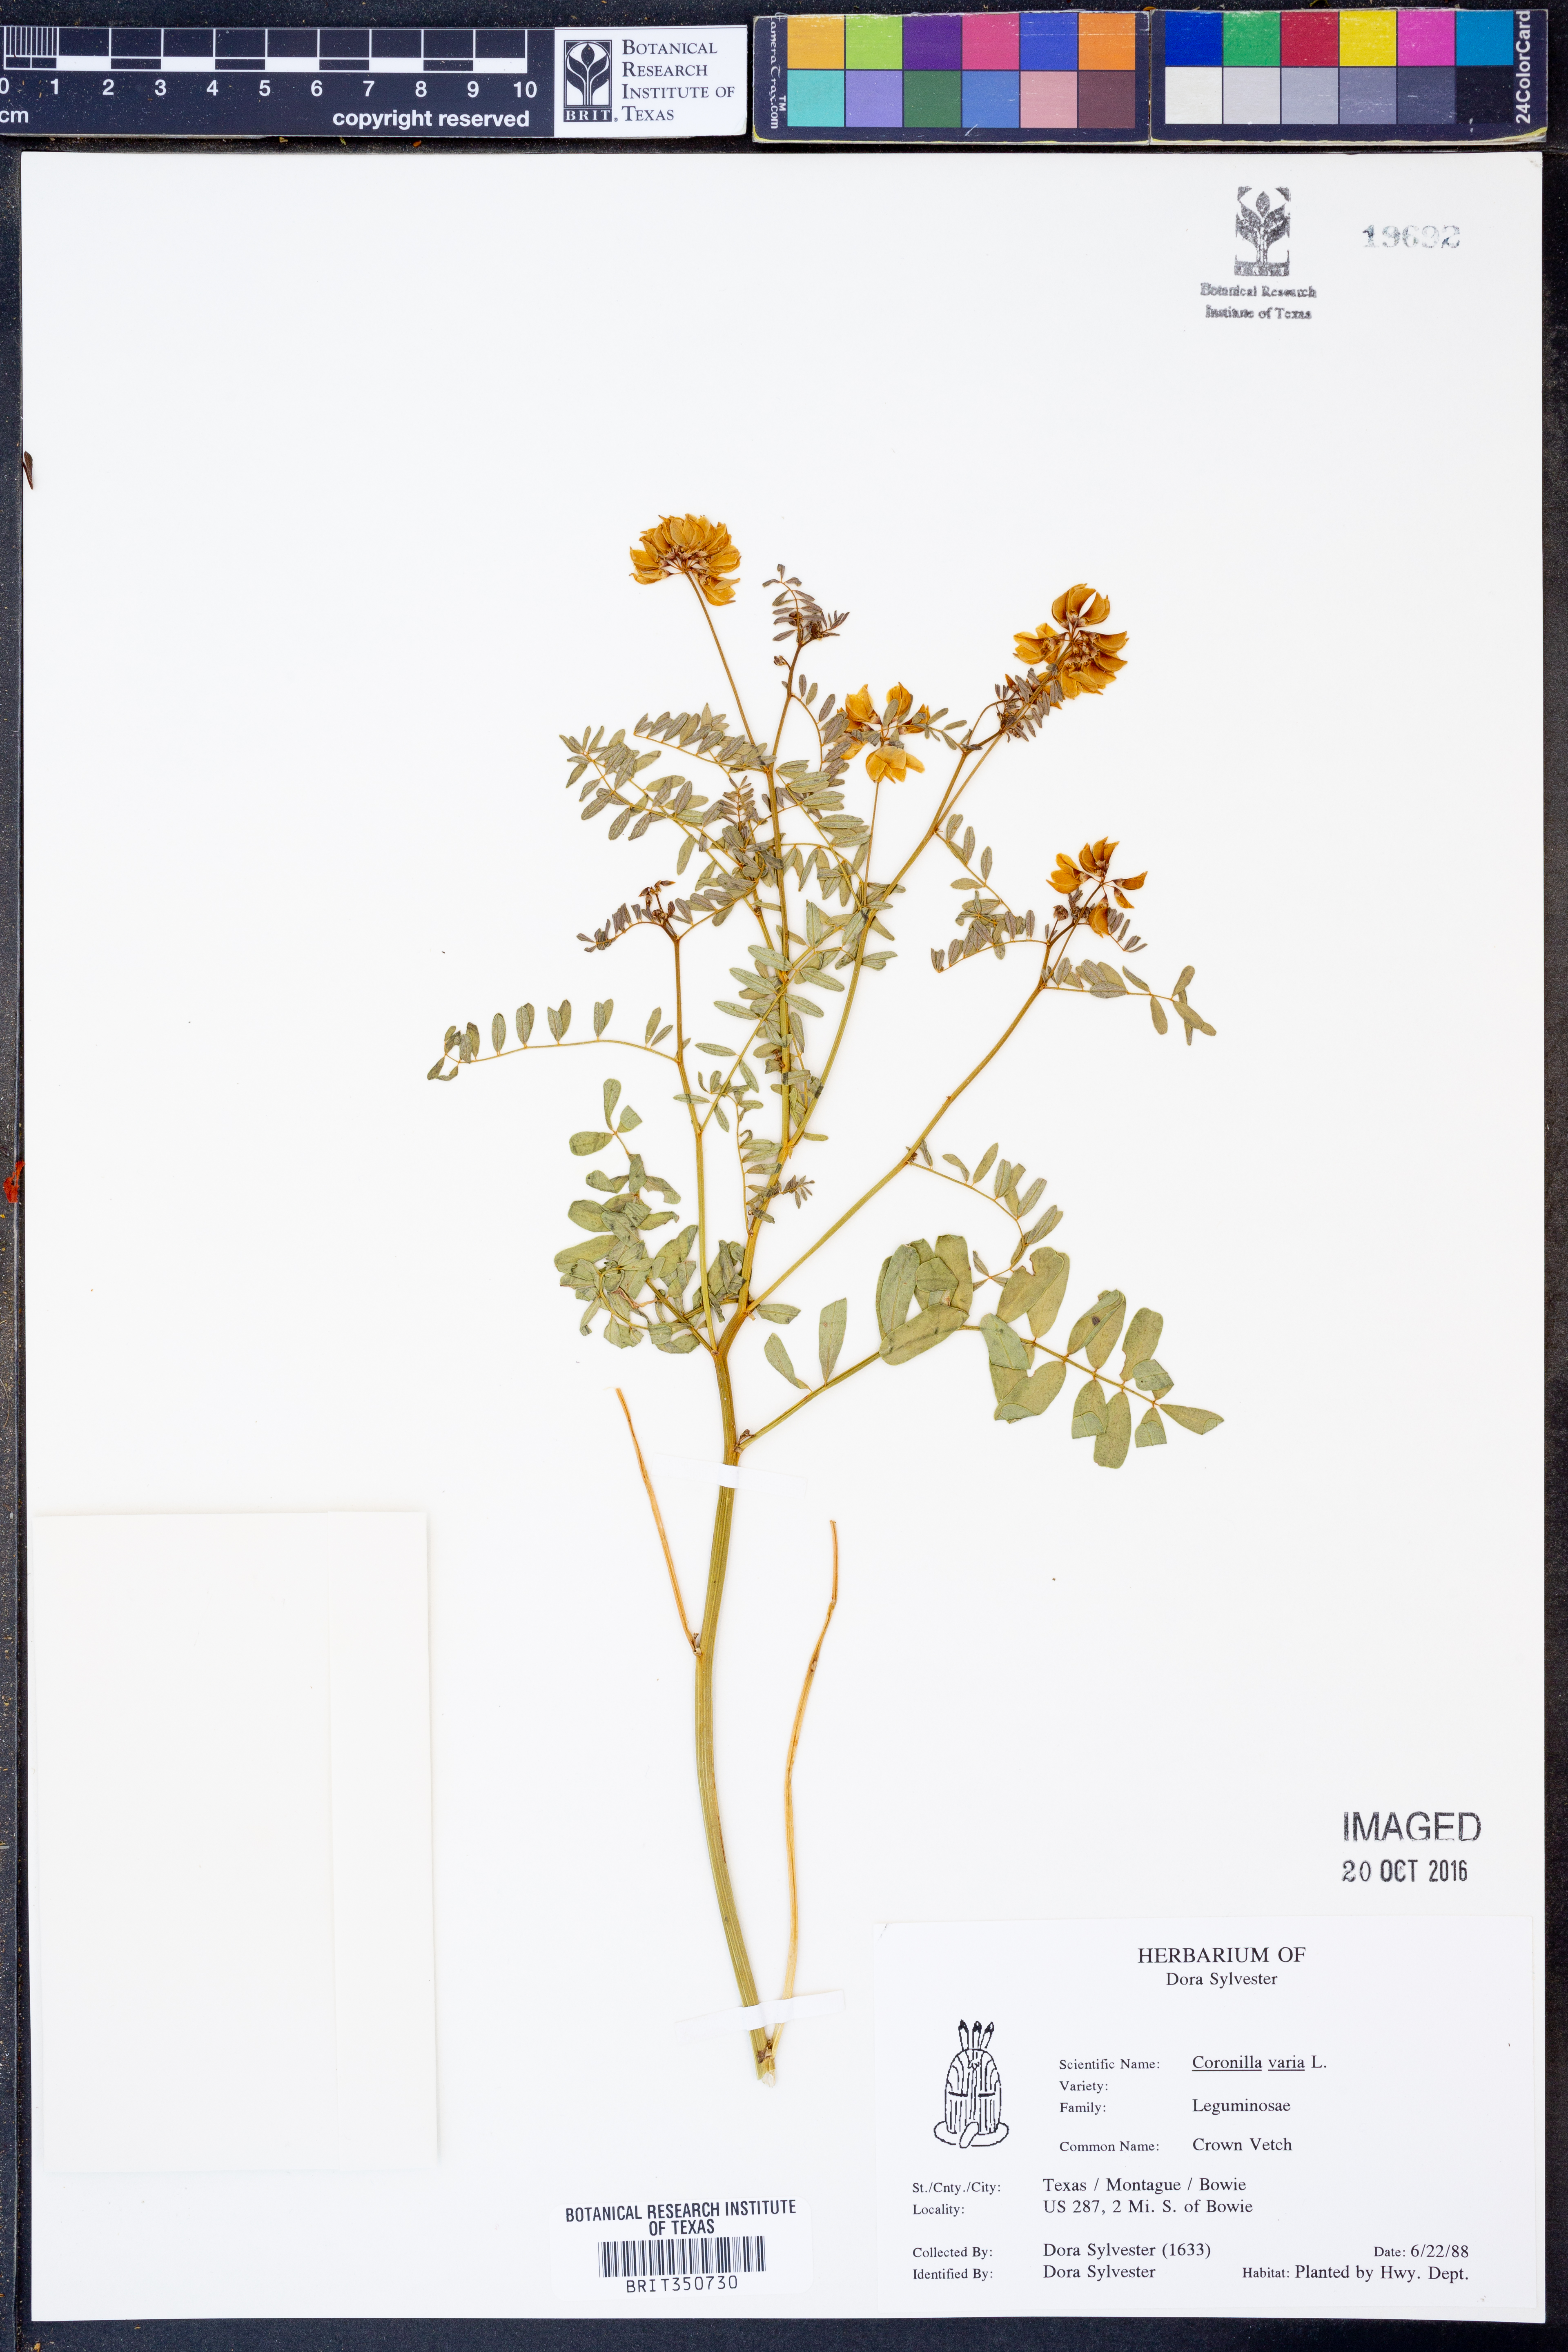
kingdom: Plantae
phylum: Tracheophyta
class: Magnoliopsida
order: Fabales
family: Fabaceae
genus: Coronilla
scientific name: Coronilla varia
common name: Crownvetch
